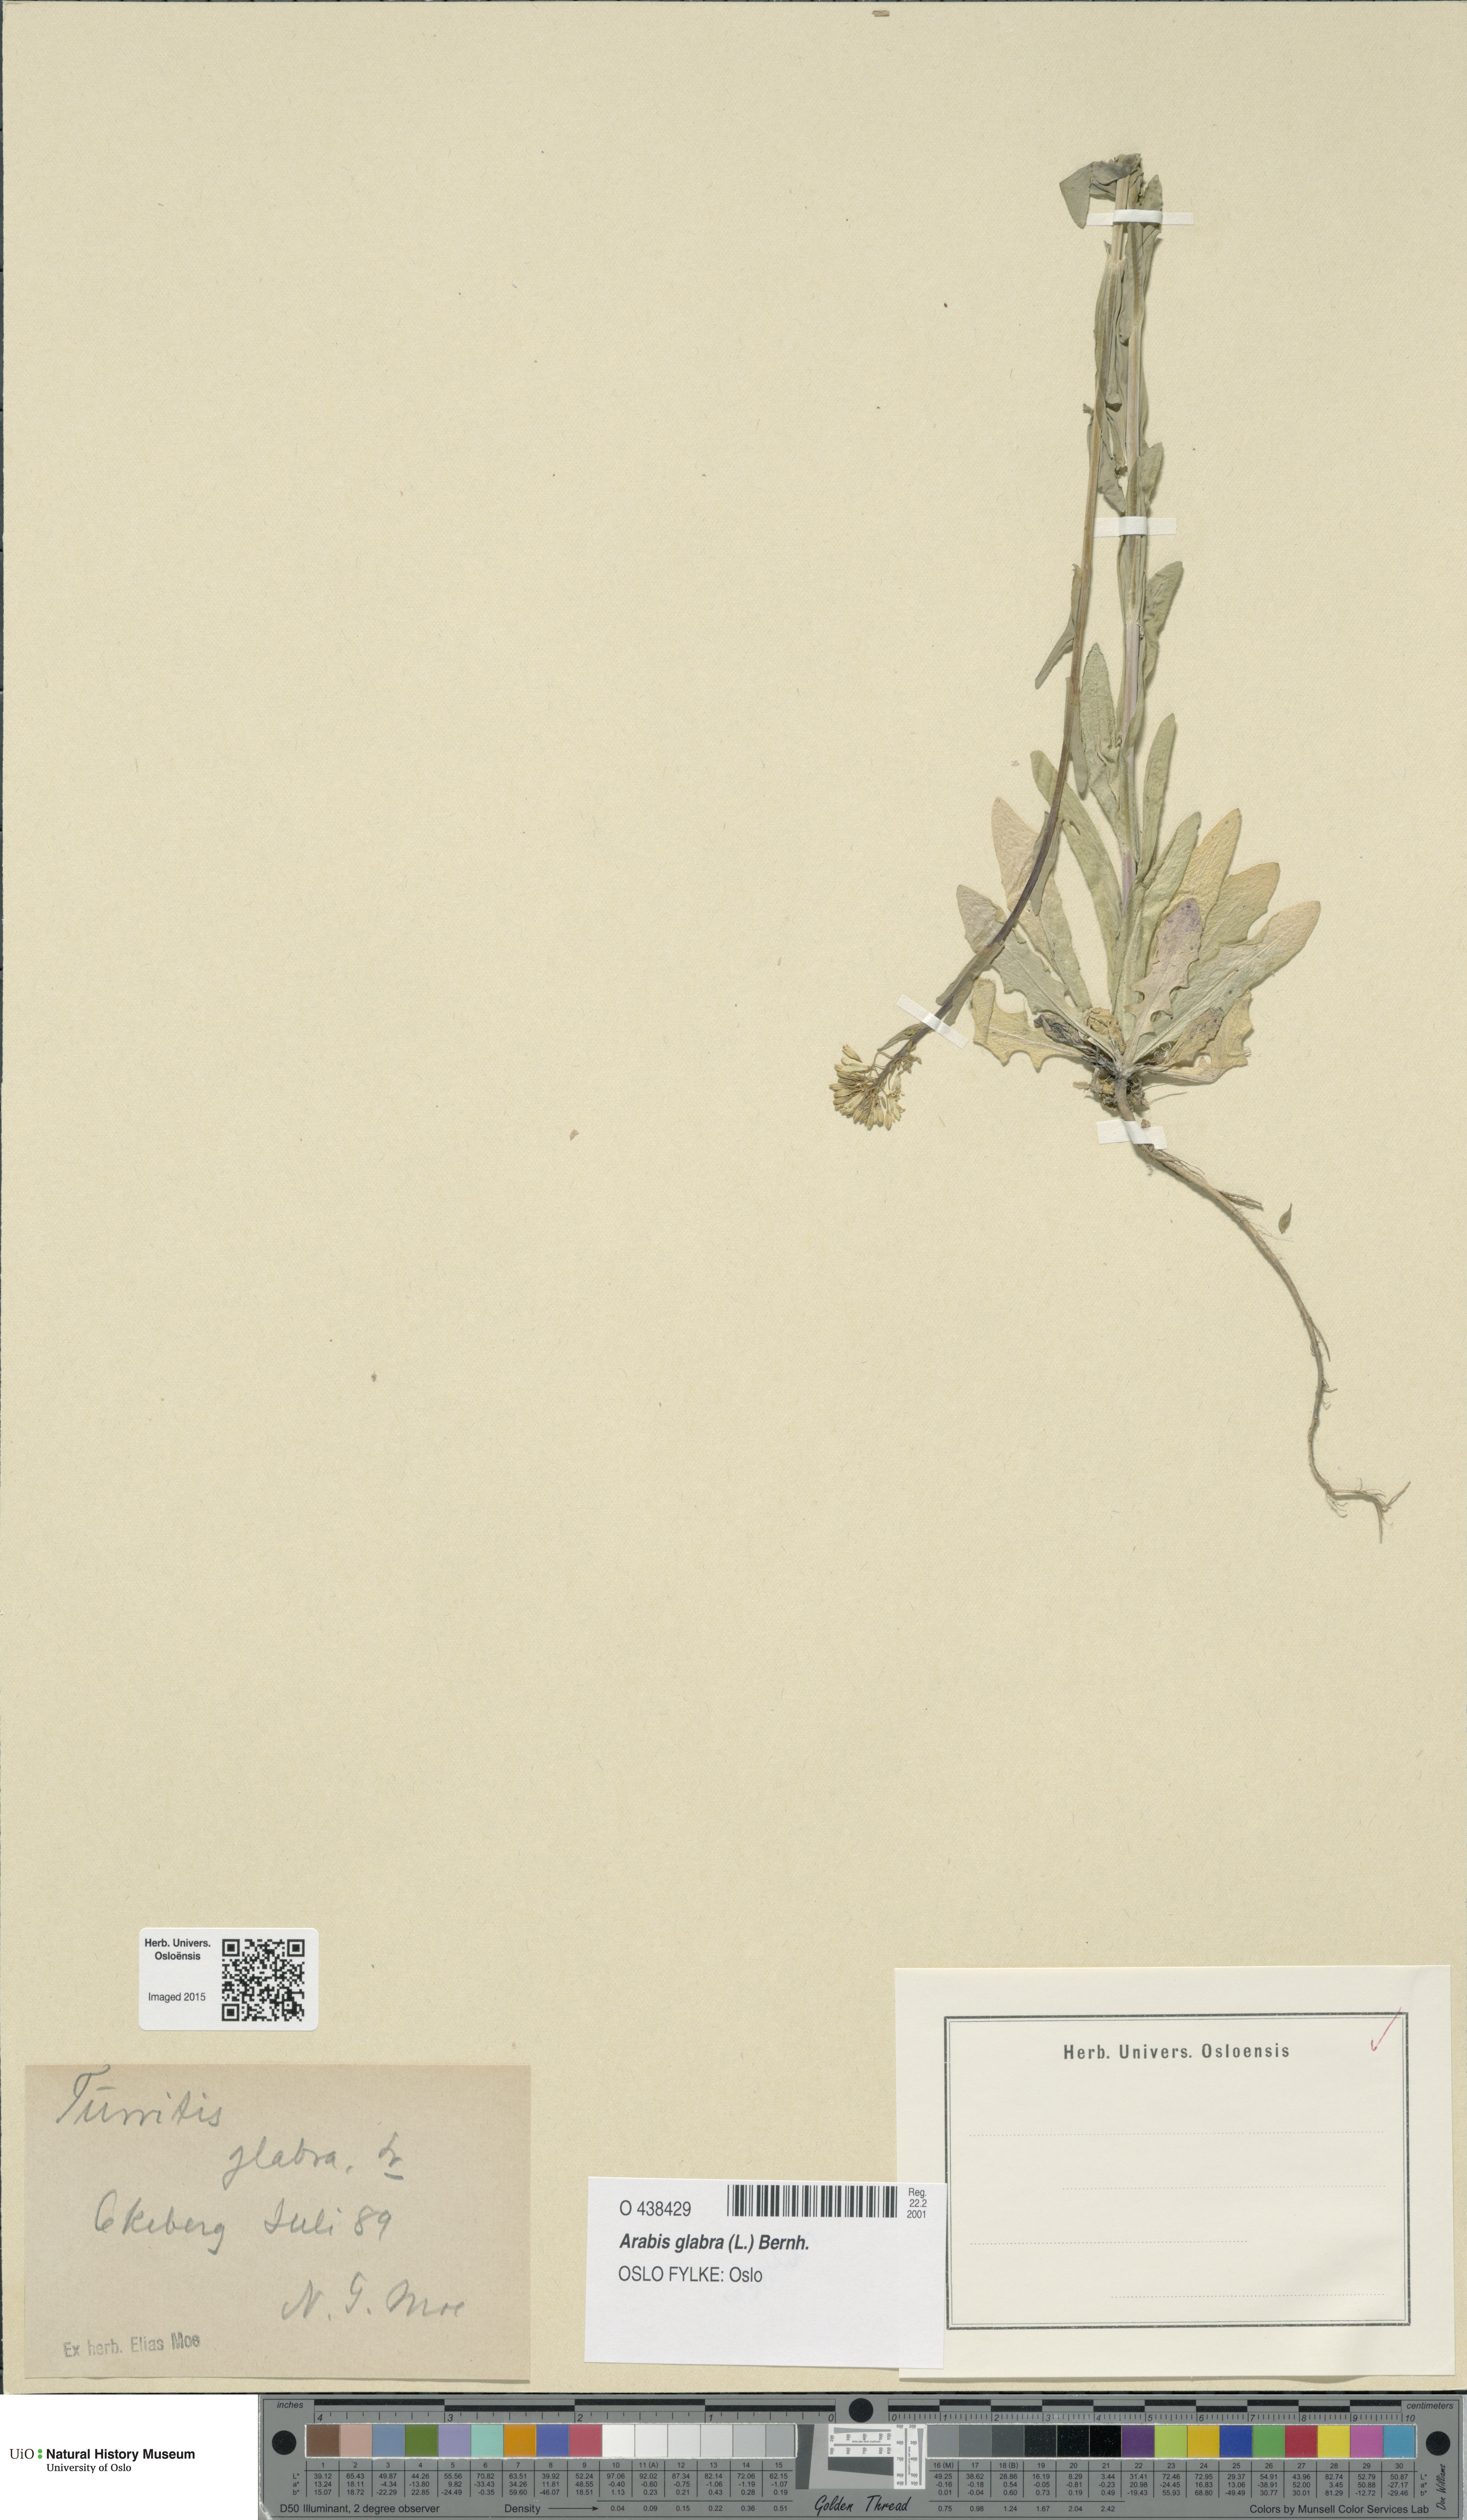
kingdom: Plantae
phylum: Tracheophyta
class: Magnoliopsida
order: Brassicales
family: Brassicaceae
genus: Turritis
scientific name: Turritis glabra
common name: Tower rockcress
